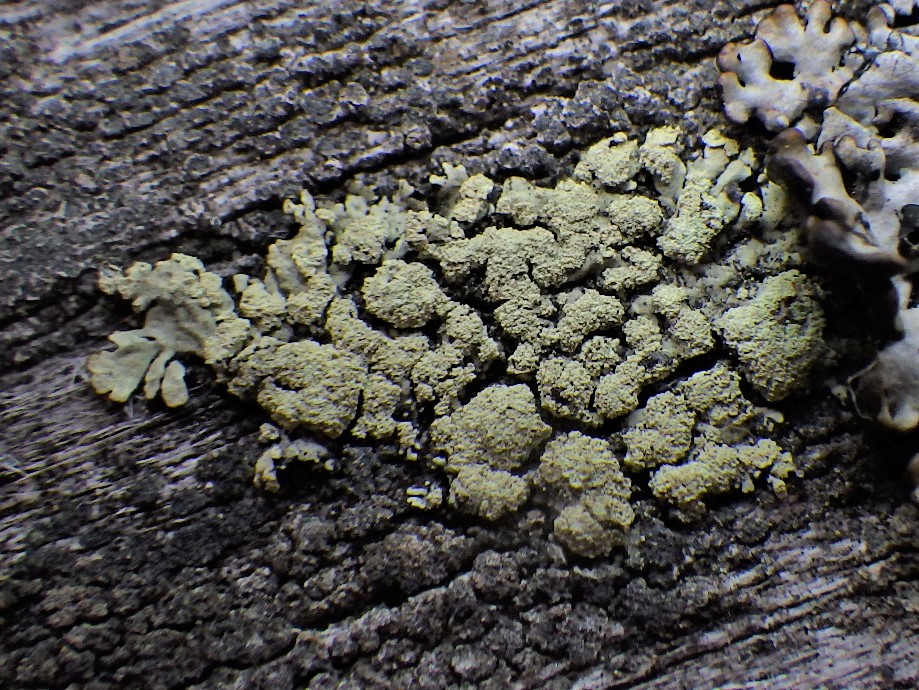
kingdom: Fungi
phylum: Ascomycota
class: Lecanoromycetes
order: Lecanorales
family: Parmeliaceae
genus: Parmeliopsis
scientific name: Parmeliopsis ambigua
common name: gul stolpelav
